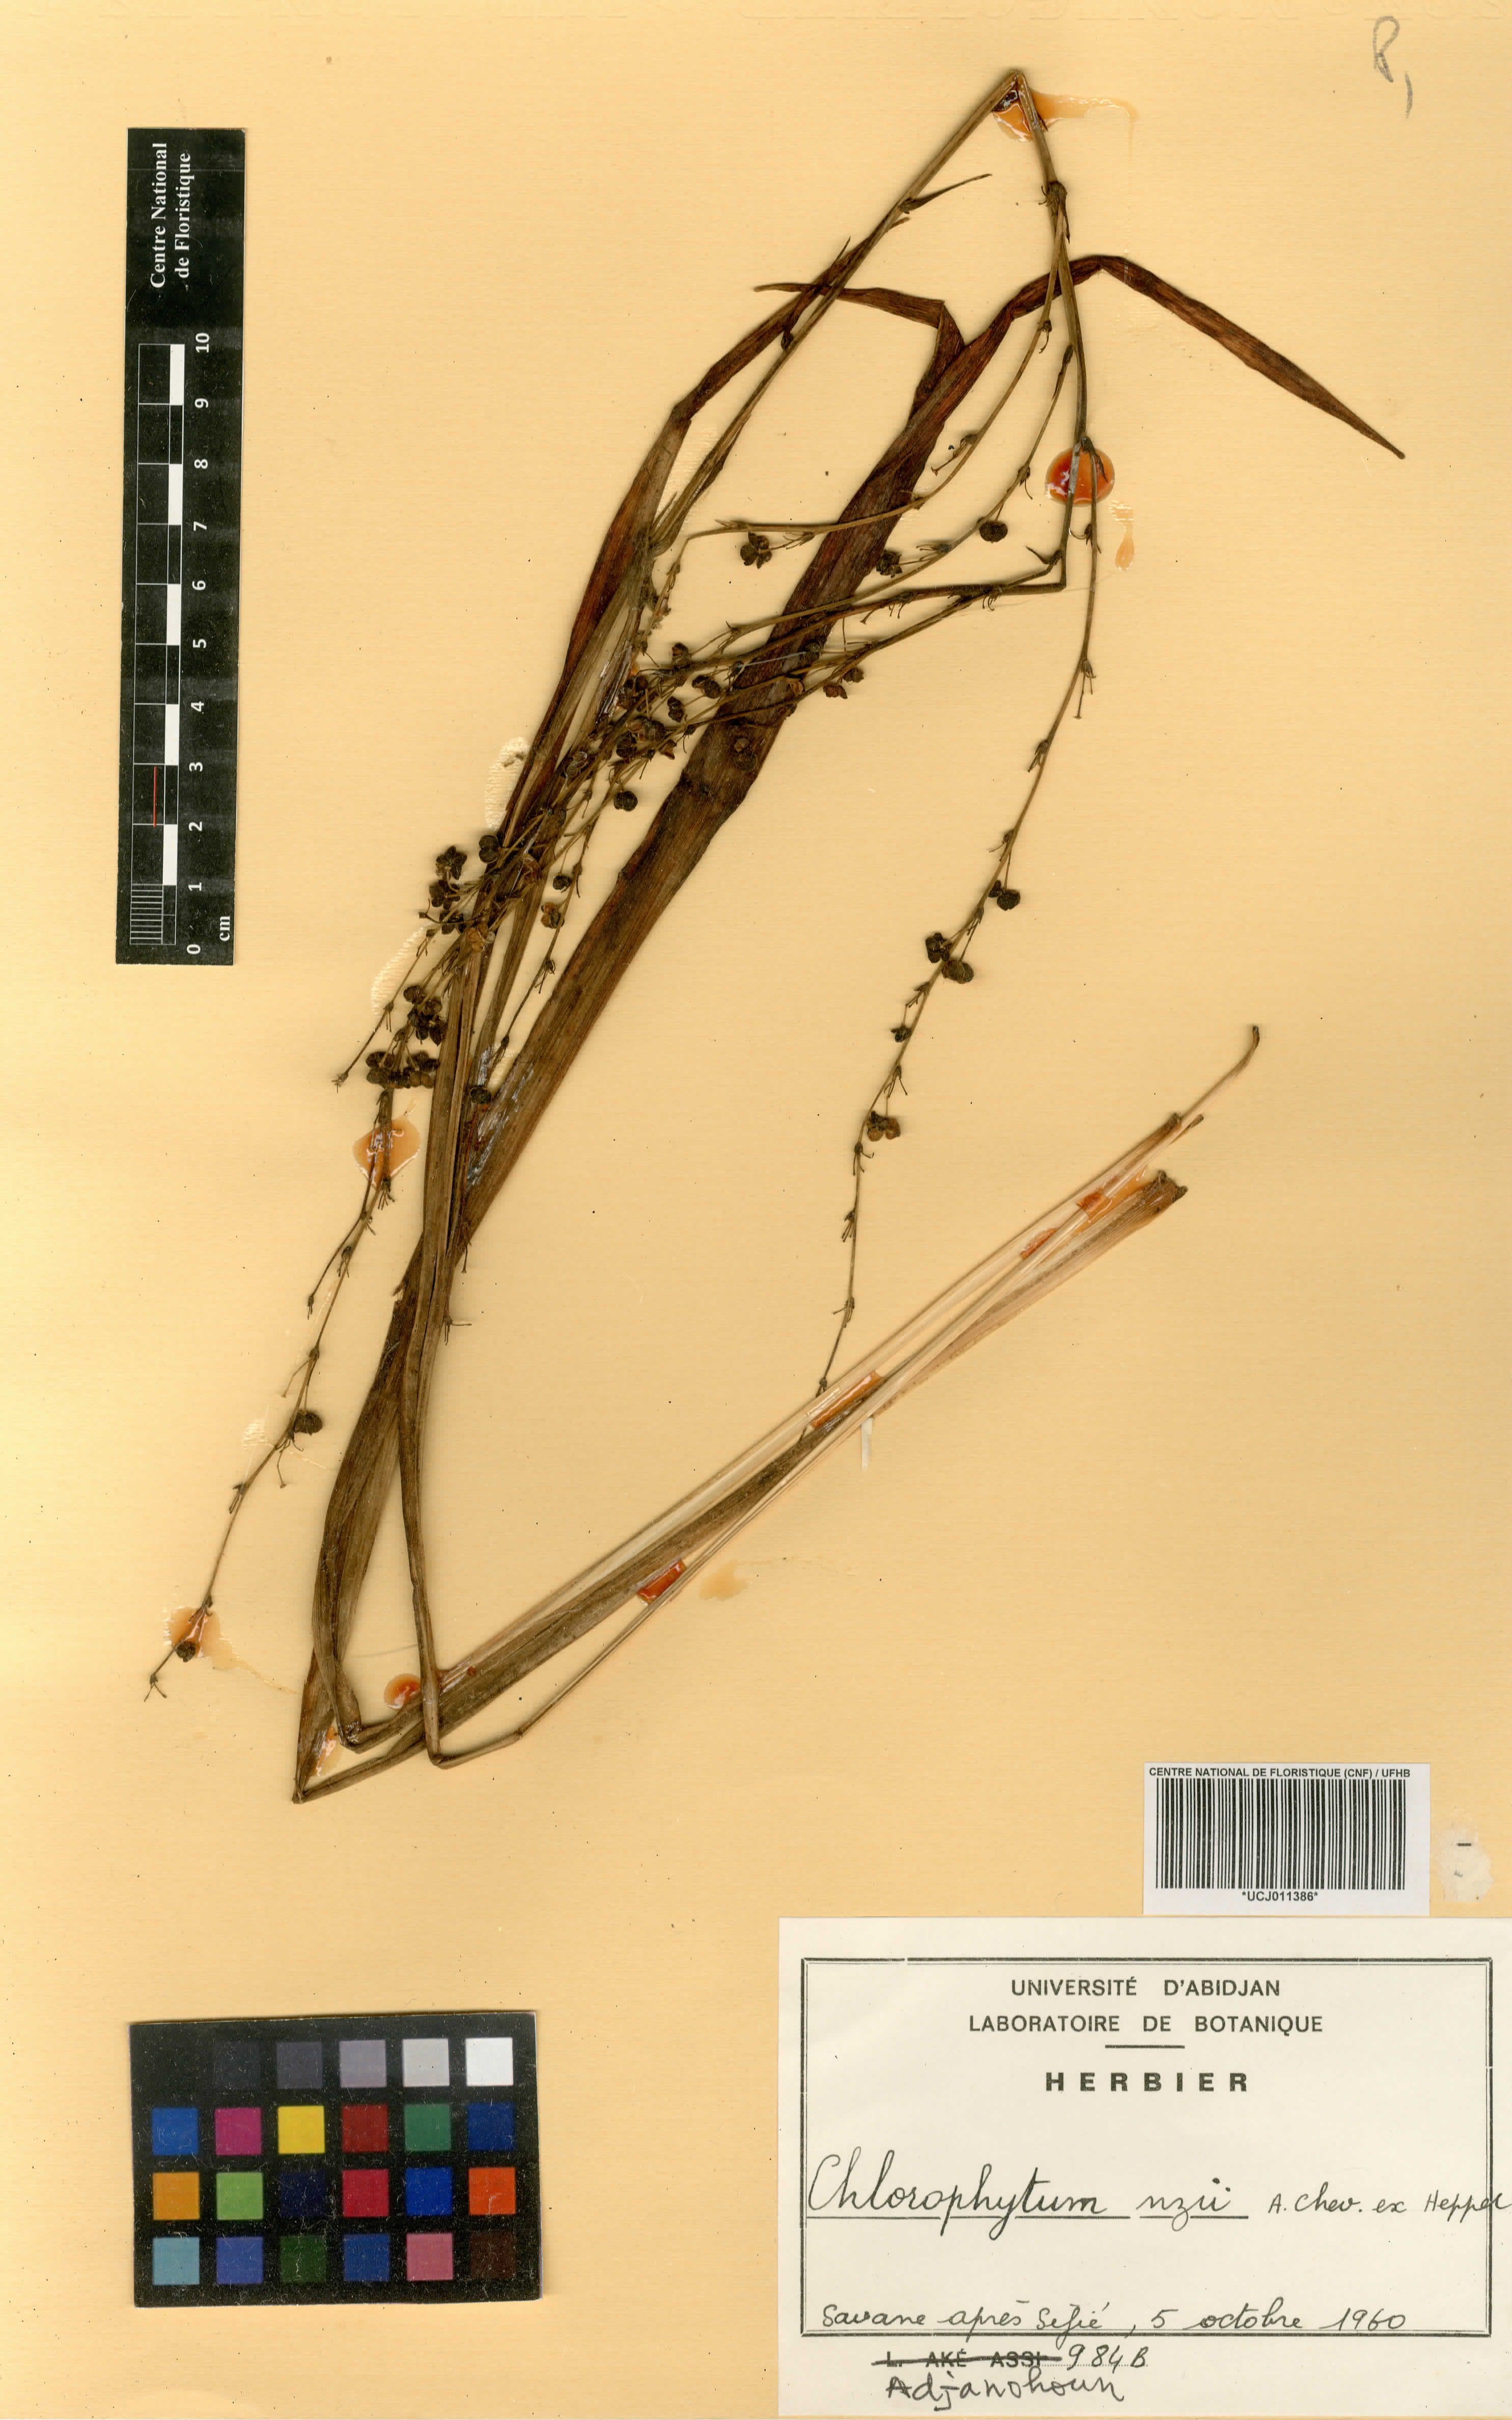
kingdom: Plantae
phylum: Tracheophyta
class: Liliopsida
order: Asparagales
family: Asparagaceae
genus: Chlorophytum
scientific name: Chlorophytum nzii
